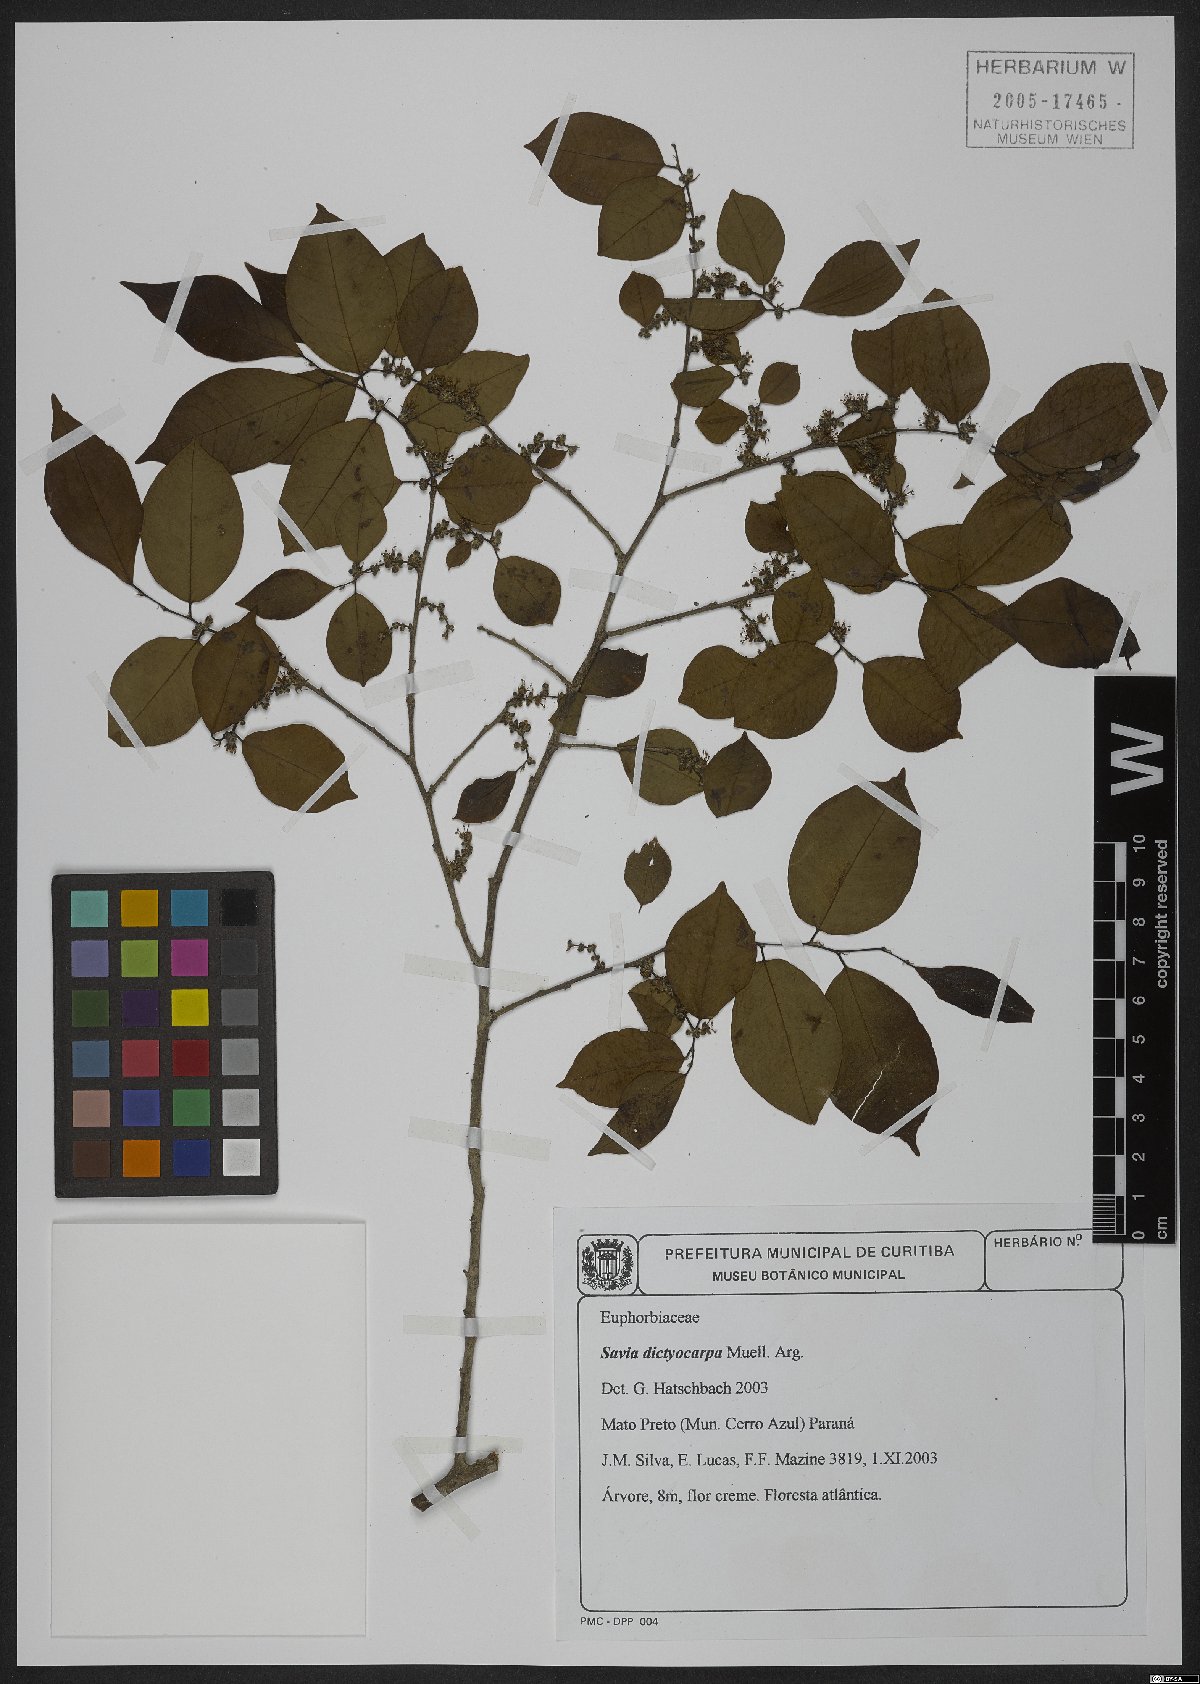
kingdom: Plantae
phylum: Tracheophyta
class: Magnoliopsida
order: Malpighiales
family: Phyllanthaceae
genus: Savia
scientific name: Savia dictyocarpa
